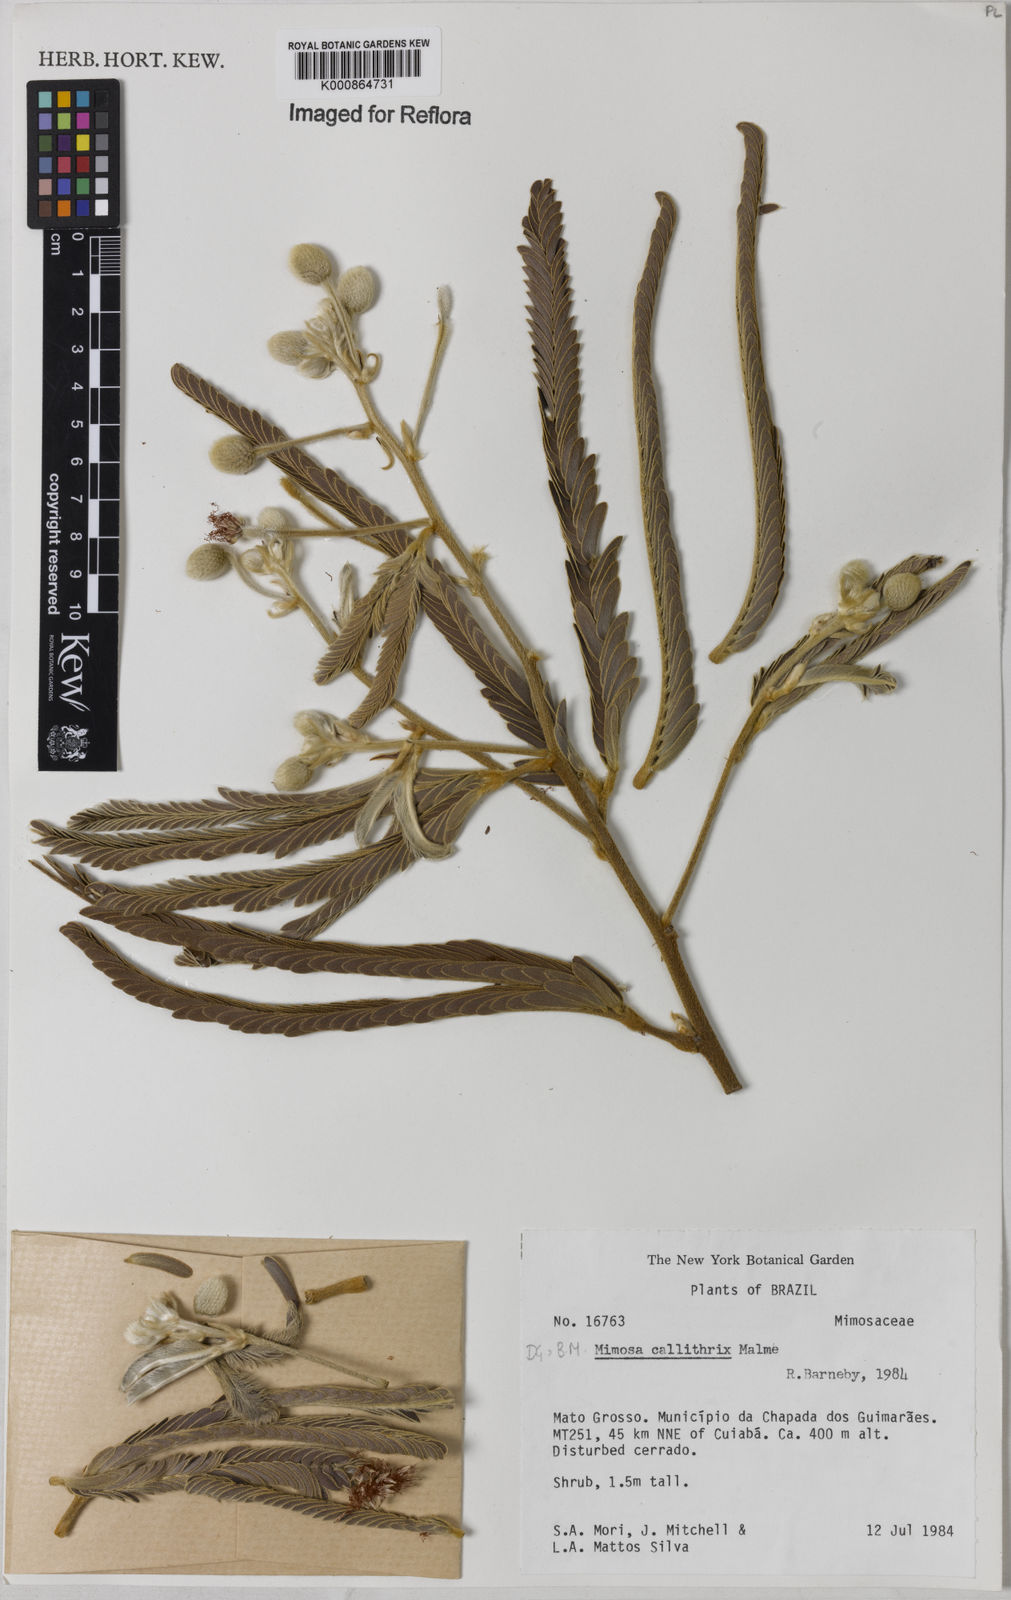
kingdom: Plantae
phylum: Tracheophyta
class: Magnoliopsida
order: Fabales
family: Fabaceae
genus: Mimosa
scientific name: Mimosa callithrix
